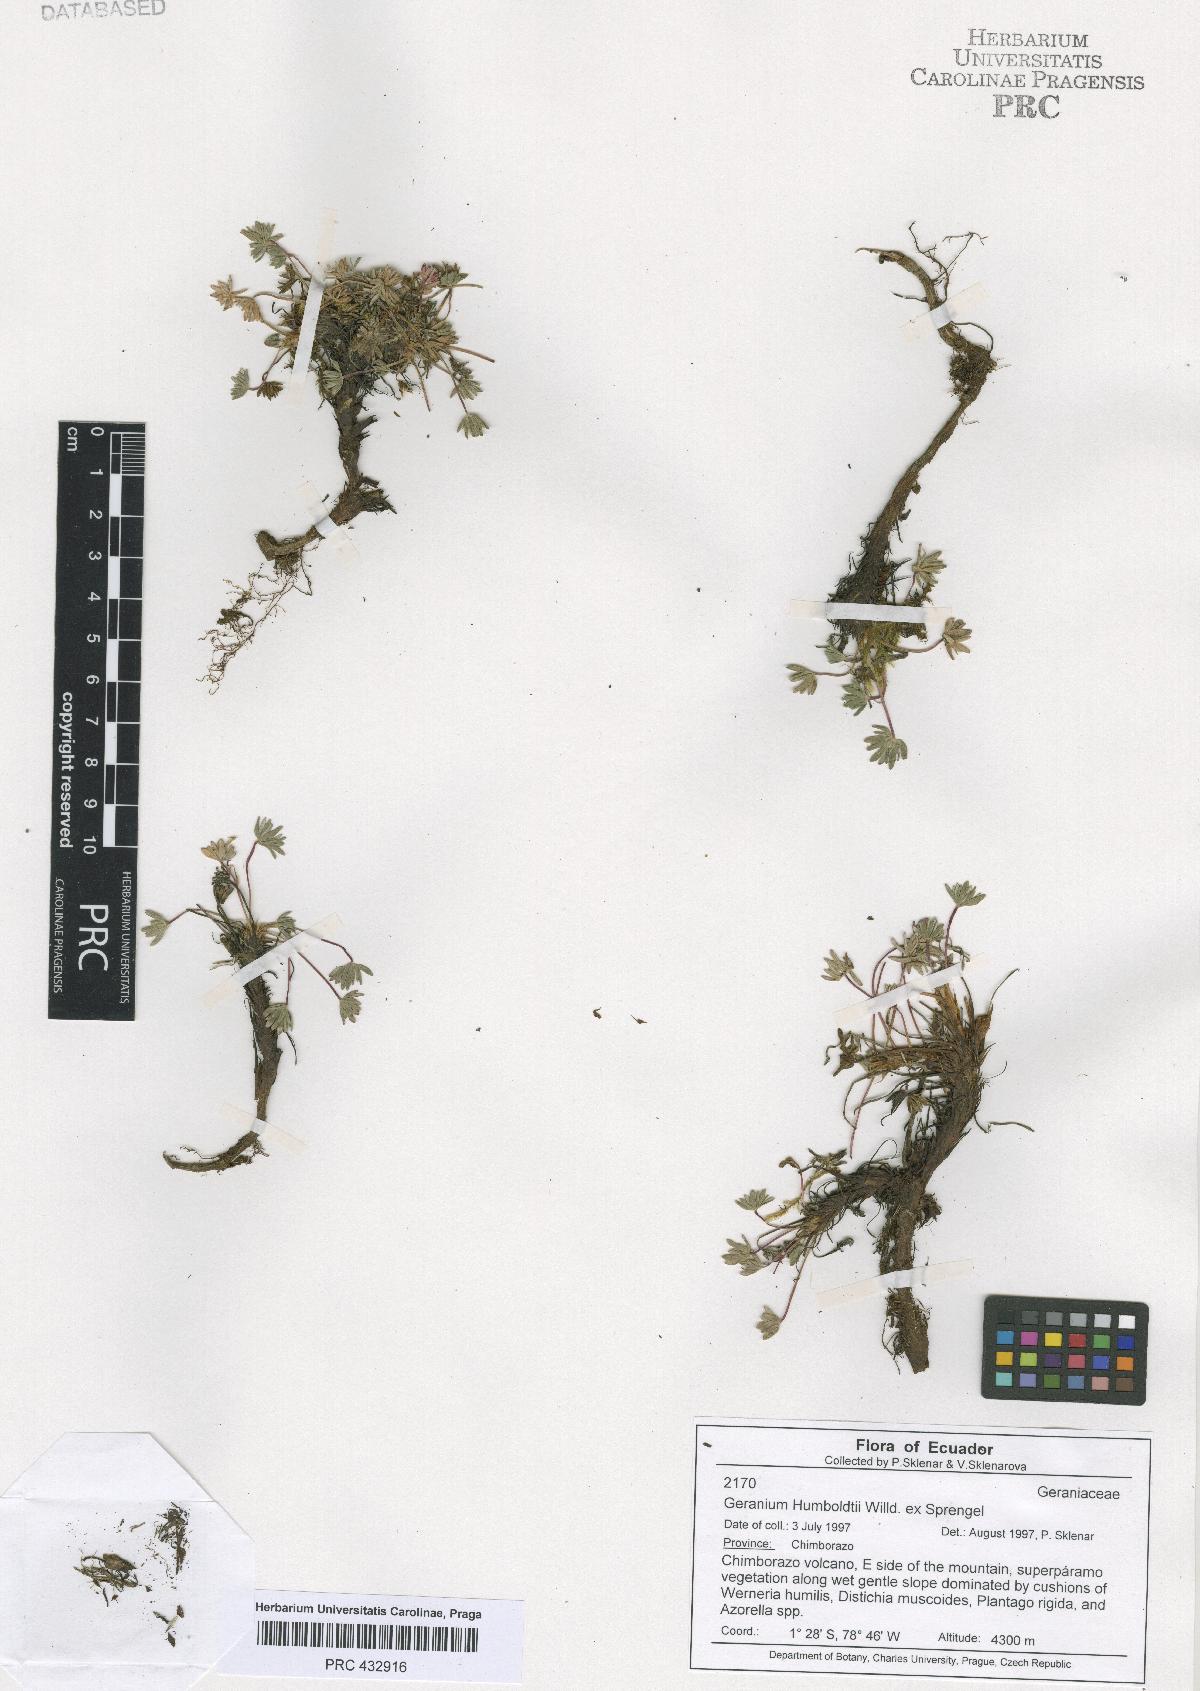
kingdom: Plantae
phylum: Tracheophyta
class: Magnoliopsida
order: Geraniales
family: Geraniaceae
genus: Geranium
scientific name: Geranium humboldtii
